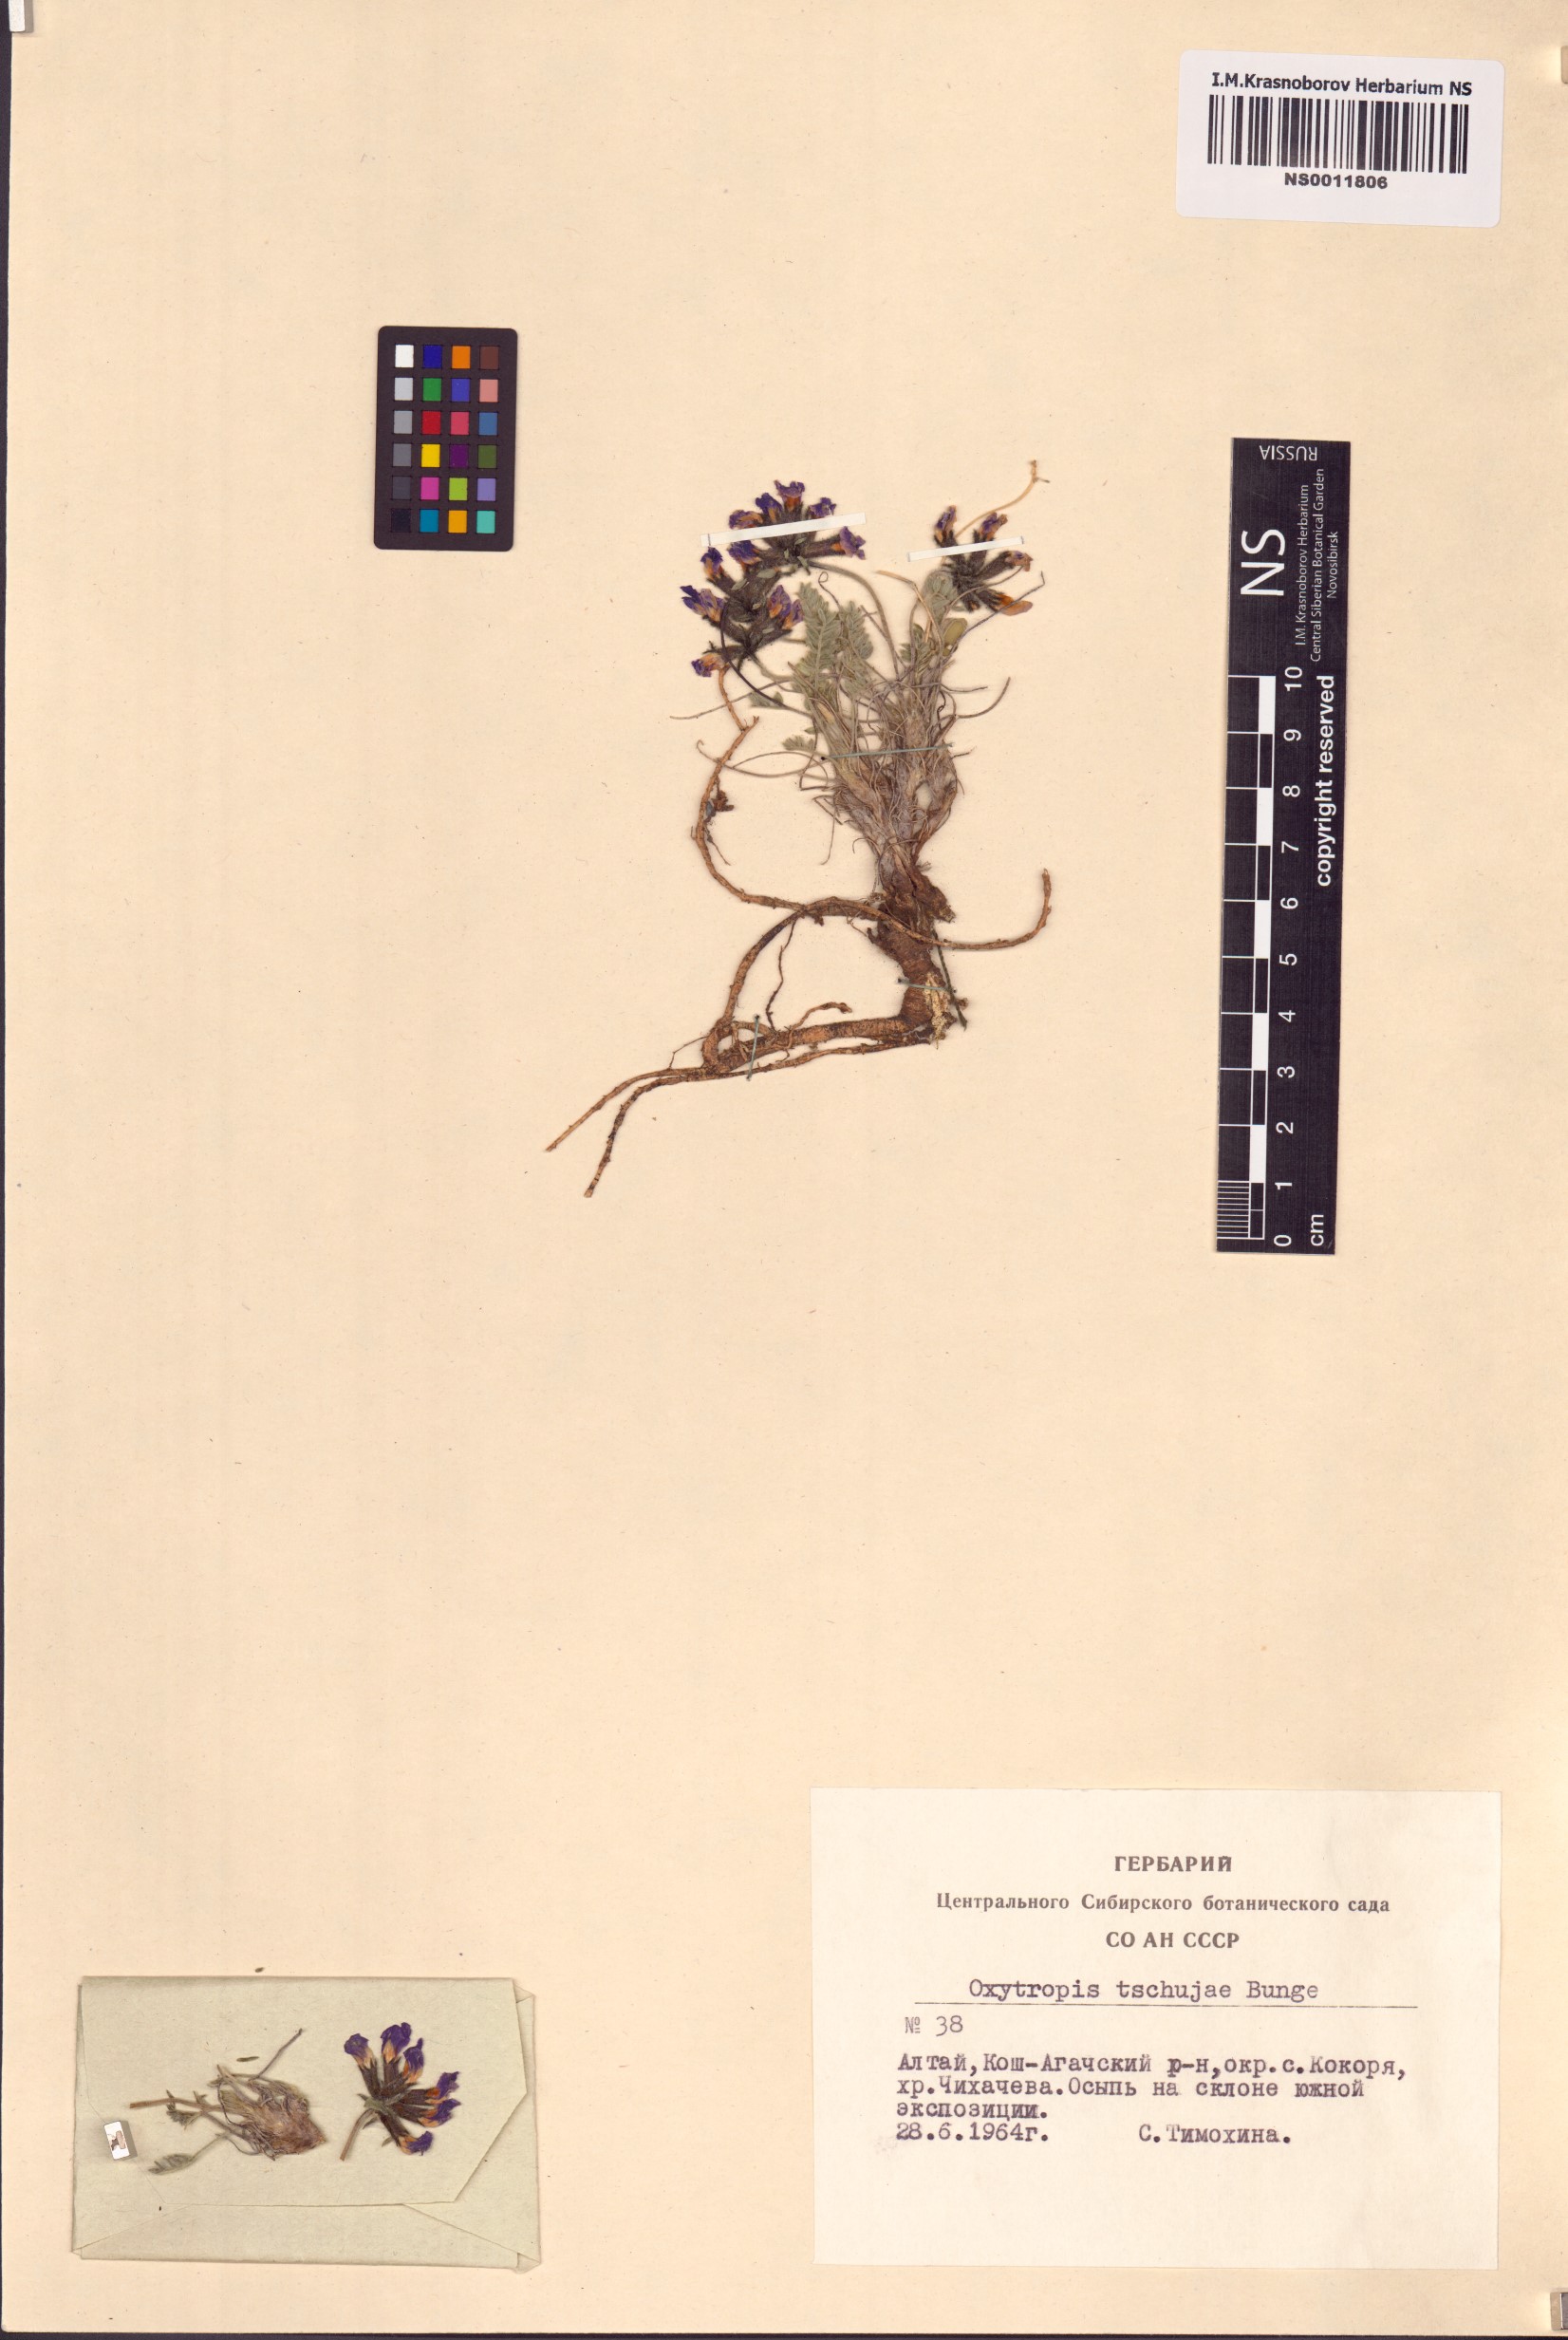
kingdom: Plantae
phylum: Tracheophyta
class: Magnoliopsida
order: Fabales
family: Fabaceae
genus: Oxytropis
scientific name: Oxytropis tschujae
